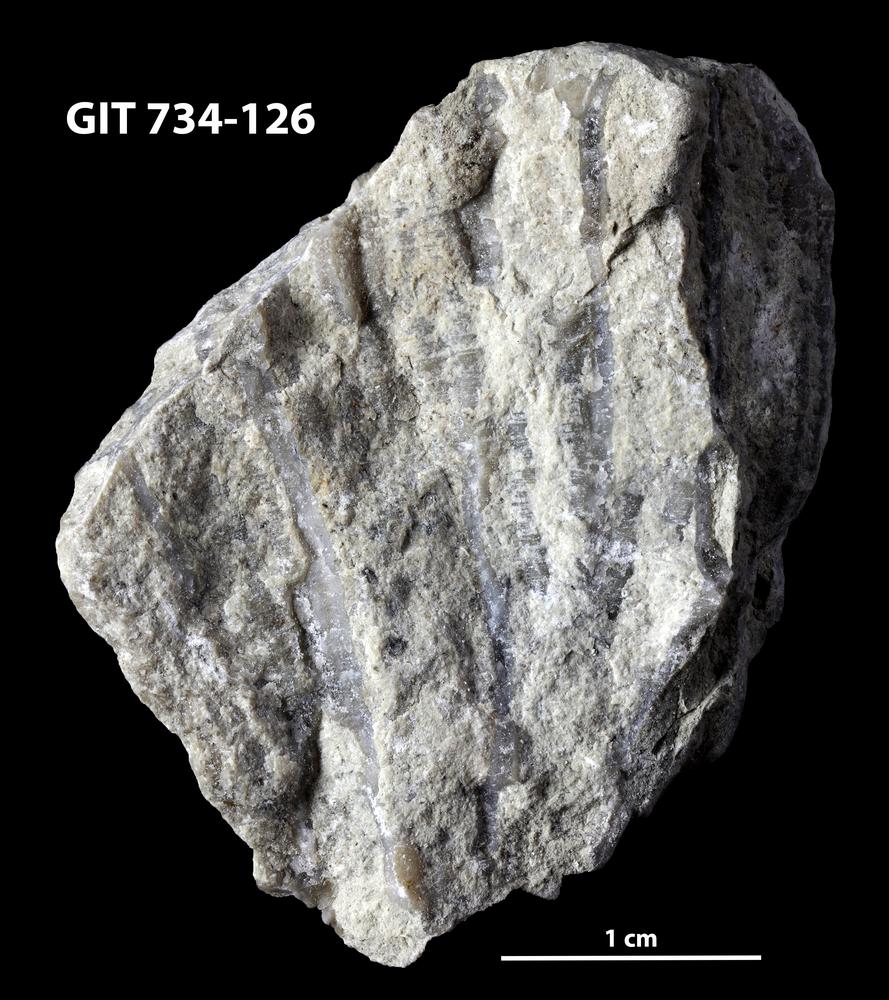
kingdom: Animalia
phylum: Cnidaria
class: Anthozoa
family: Cateniporidae
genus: Catenipora
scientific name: Catenipora tapaensis
